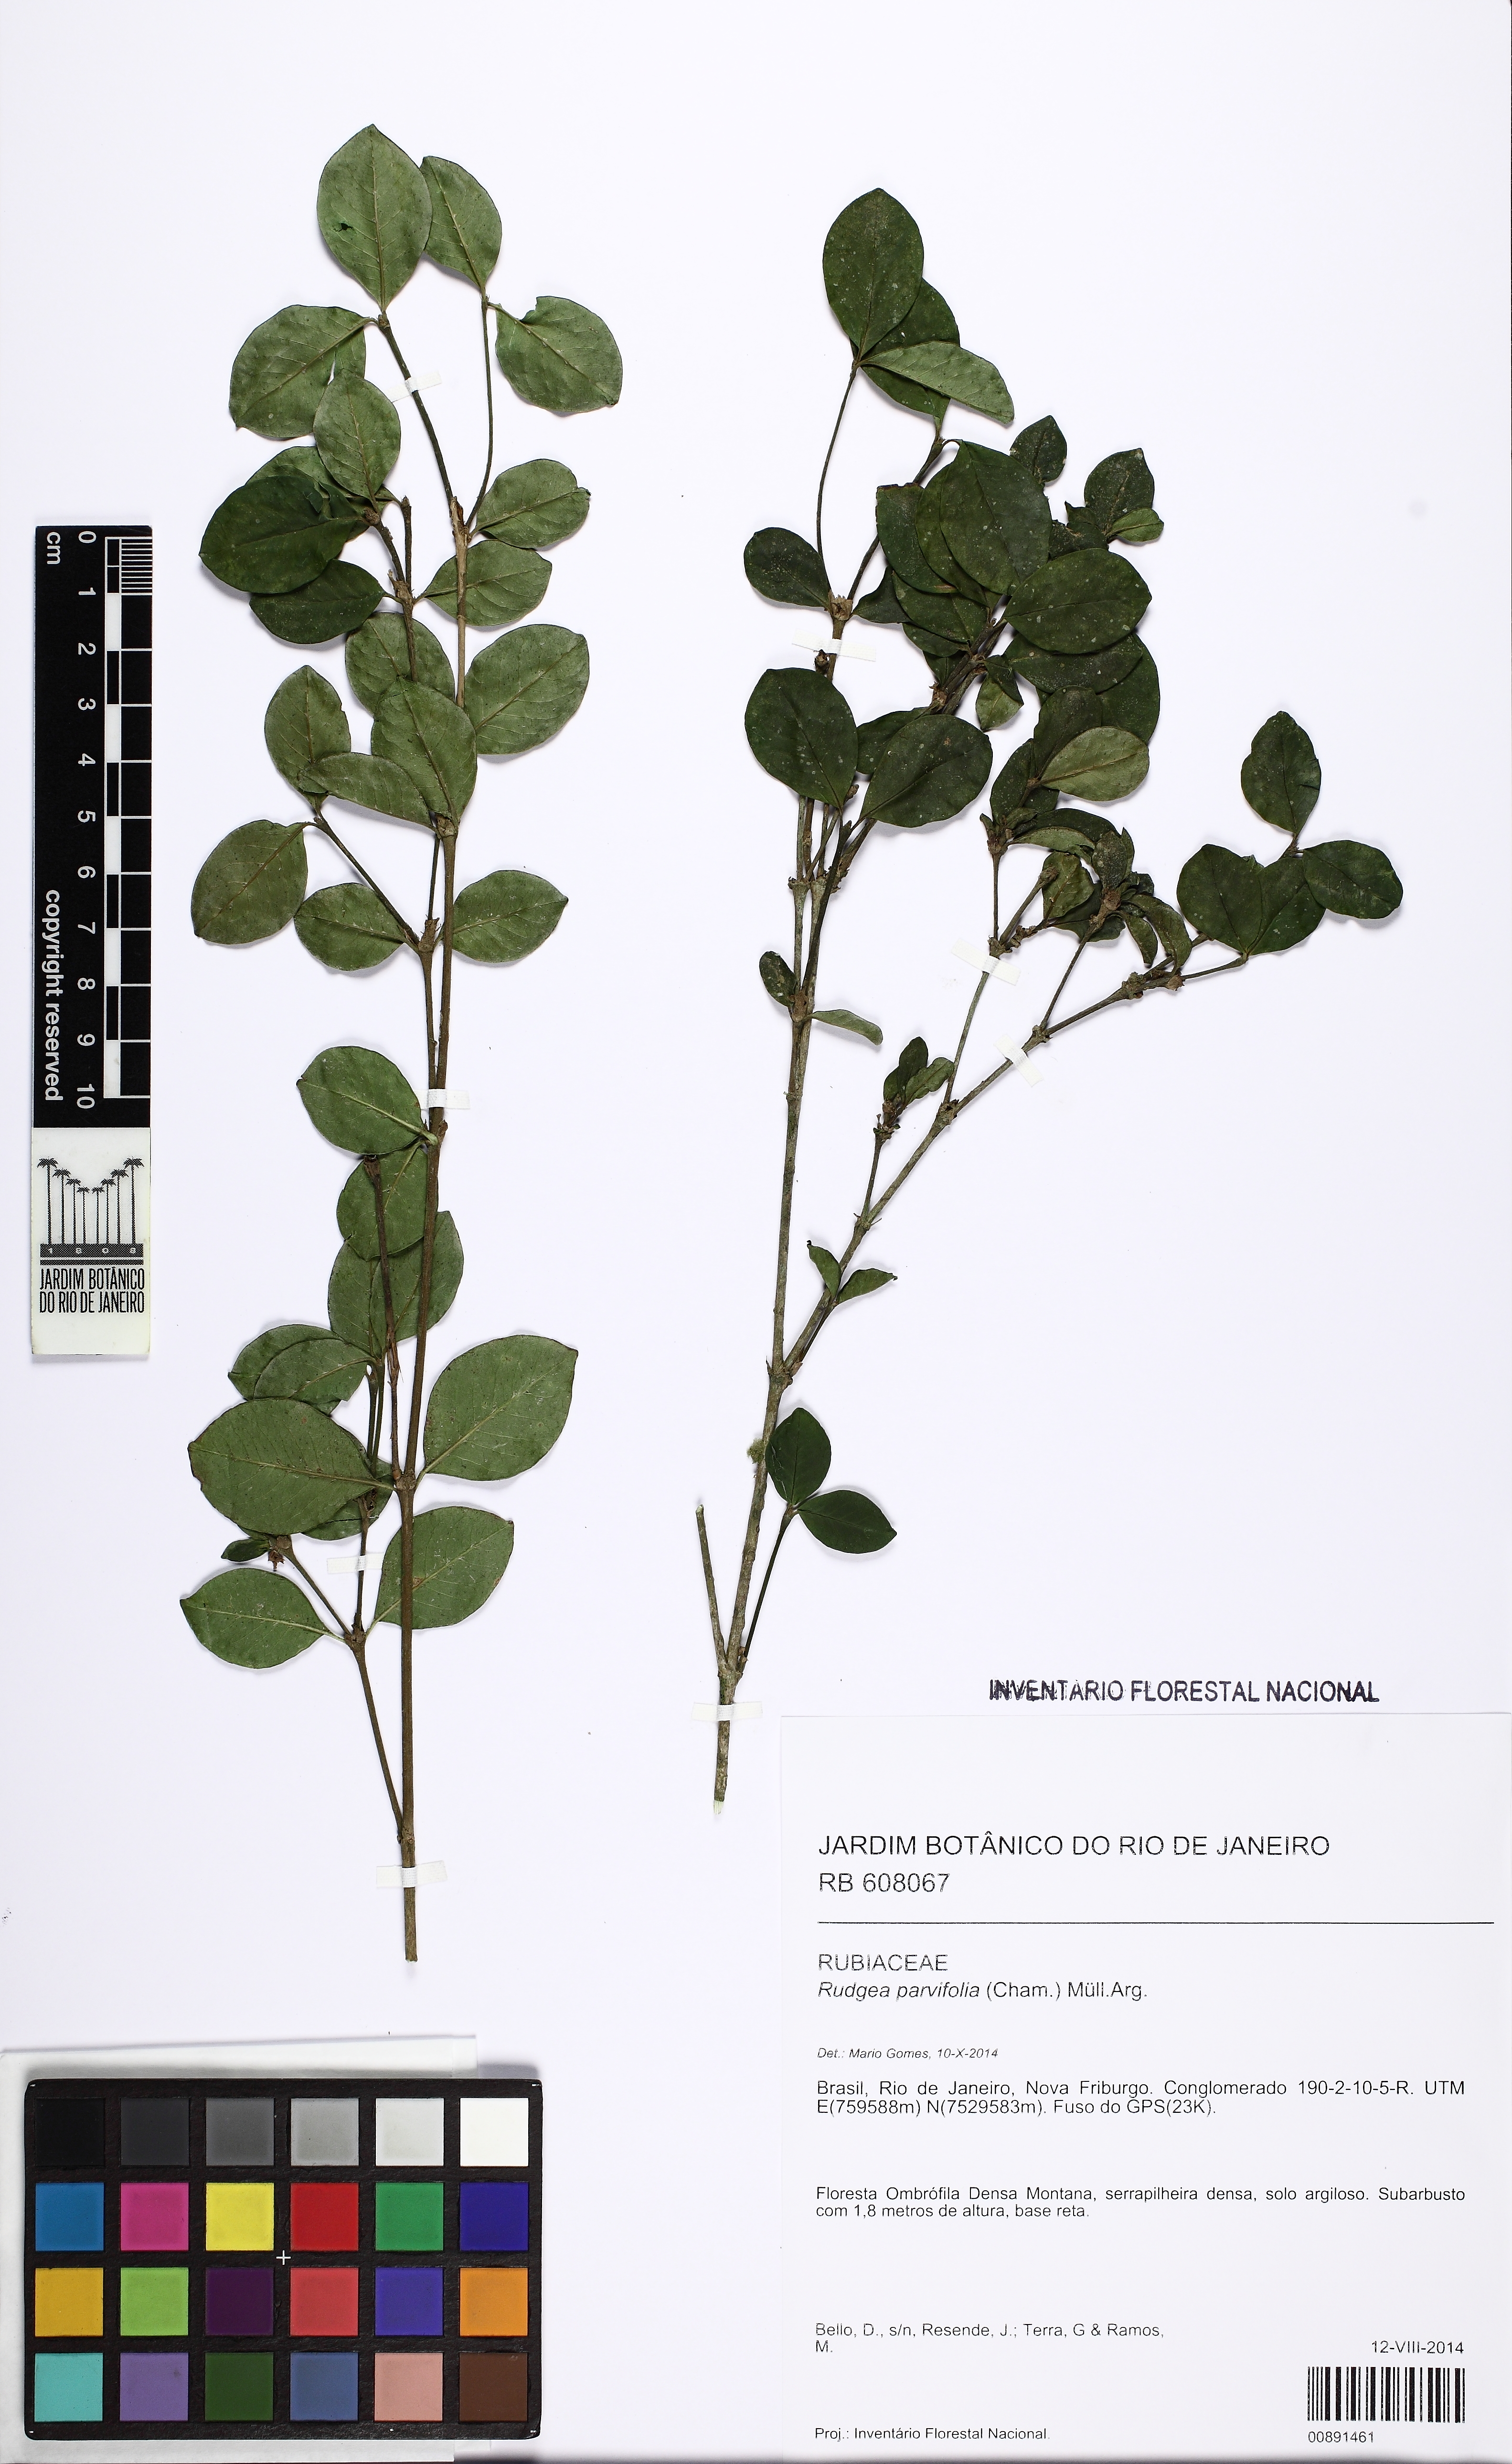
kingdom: Plantae
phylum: Tracheophyta
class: Magnoliopsida
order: Gentianales
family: Rubiaceae
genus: Rudgea
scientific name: Rudgea parvifolia
